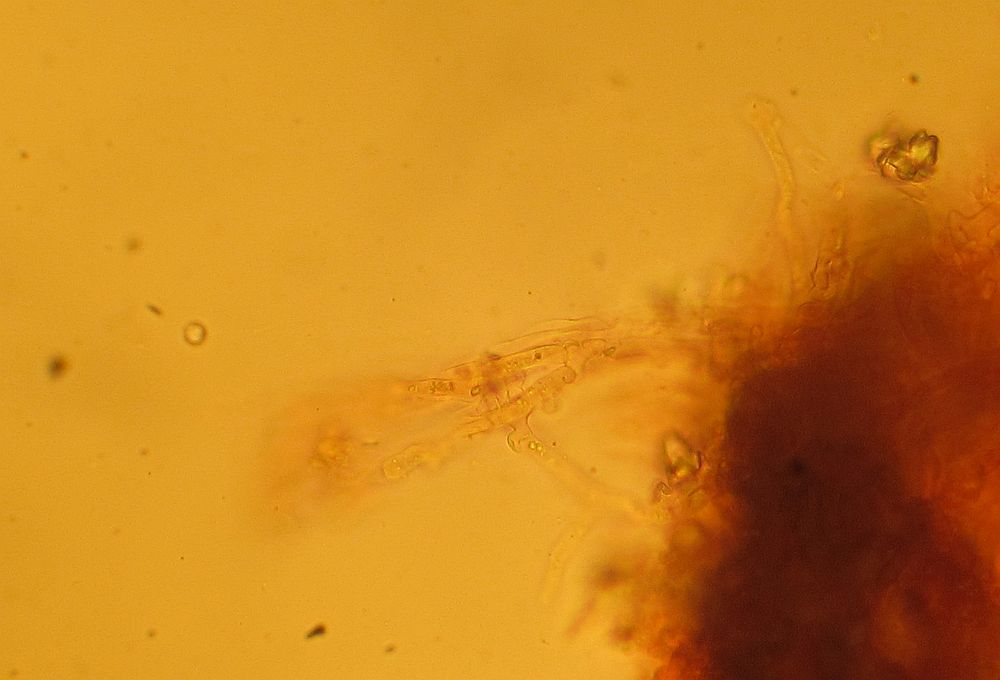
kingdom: Fungi
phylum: Basidiomycota
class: Agaricomycetes
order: Cantharellales
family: Hydnaceae
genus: Sistotrema
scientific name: Sistotrema brinkmannii
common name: bønnesporet kroneskorpe
